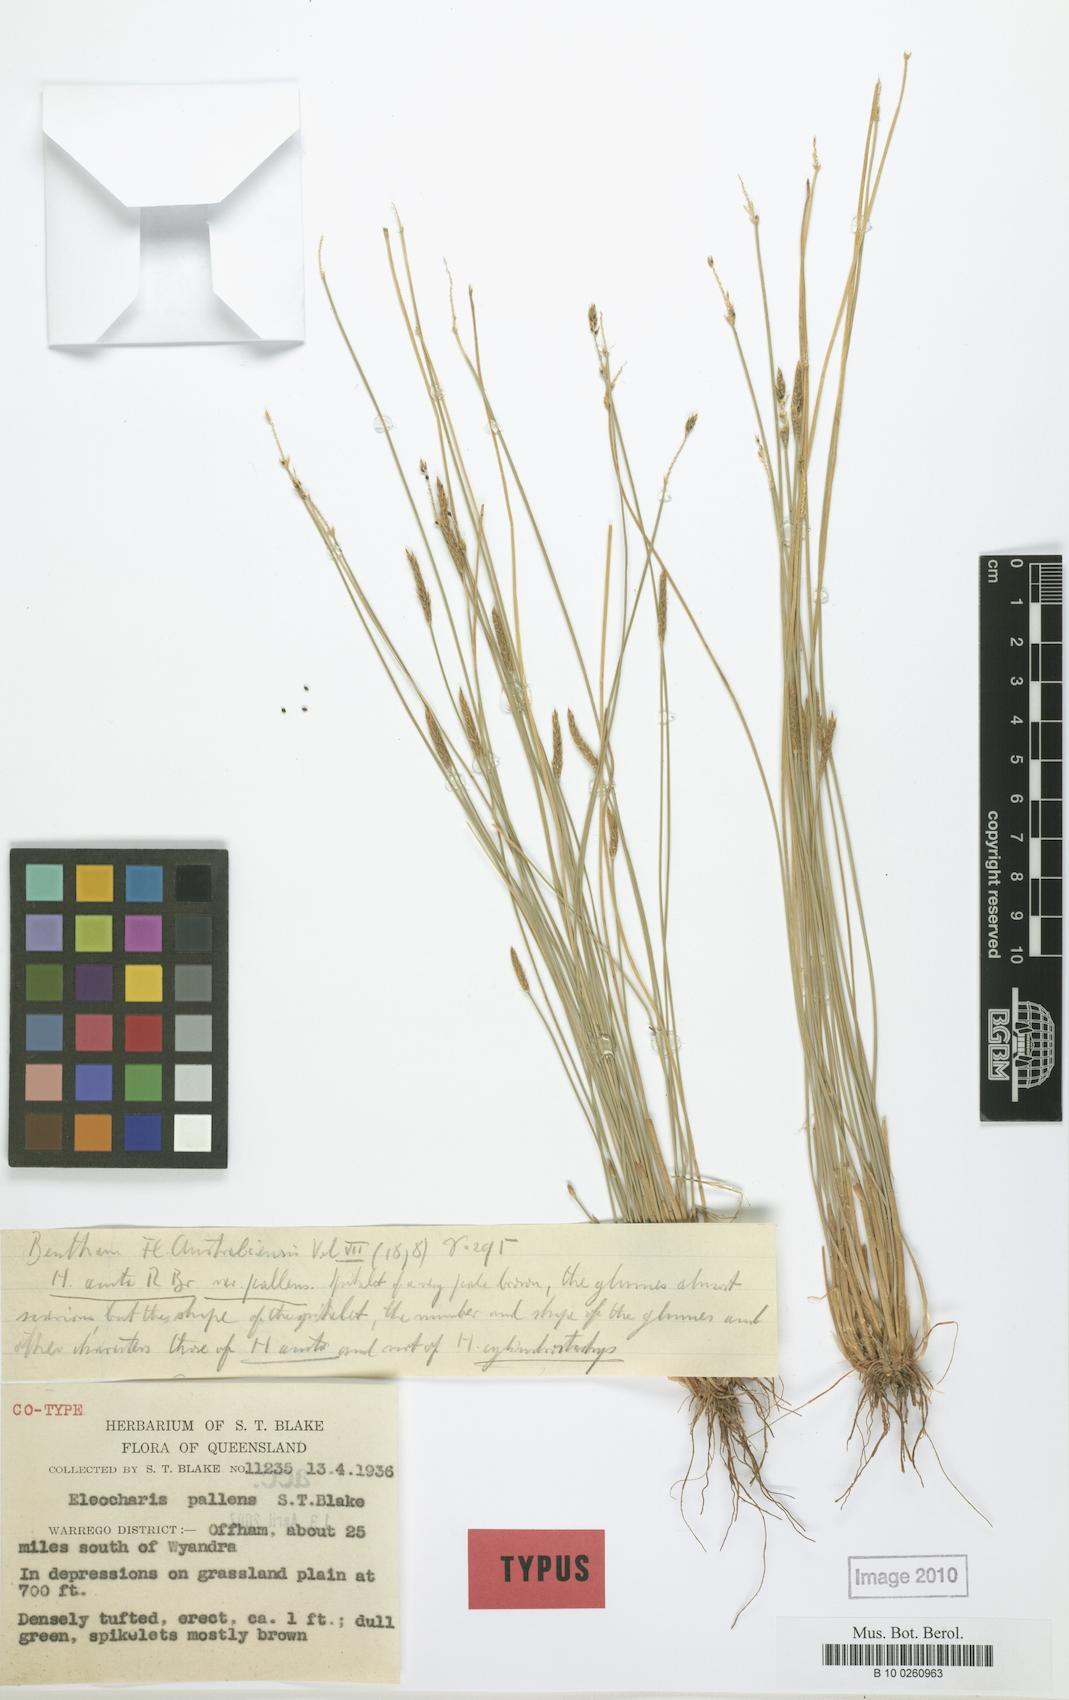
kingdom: Plantae
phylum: Tracheophyta
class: Liliopsida
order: Poales
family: Cyperaceae
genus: Eleocharis
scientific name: Eleocharis pallens
